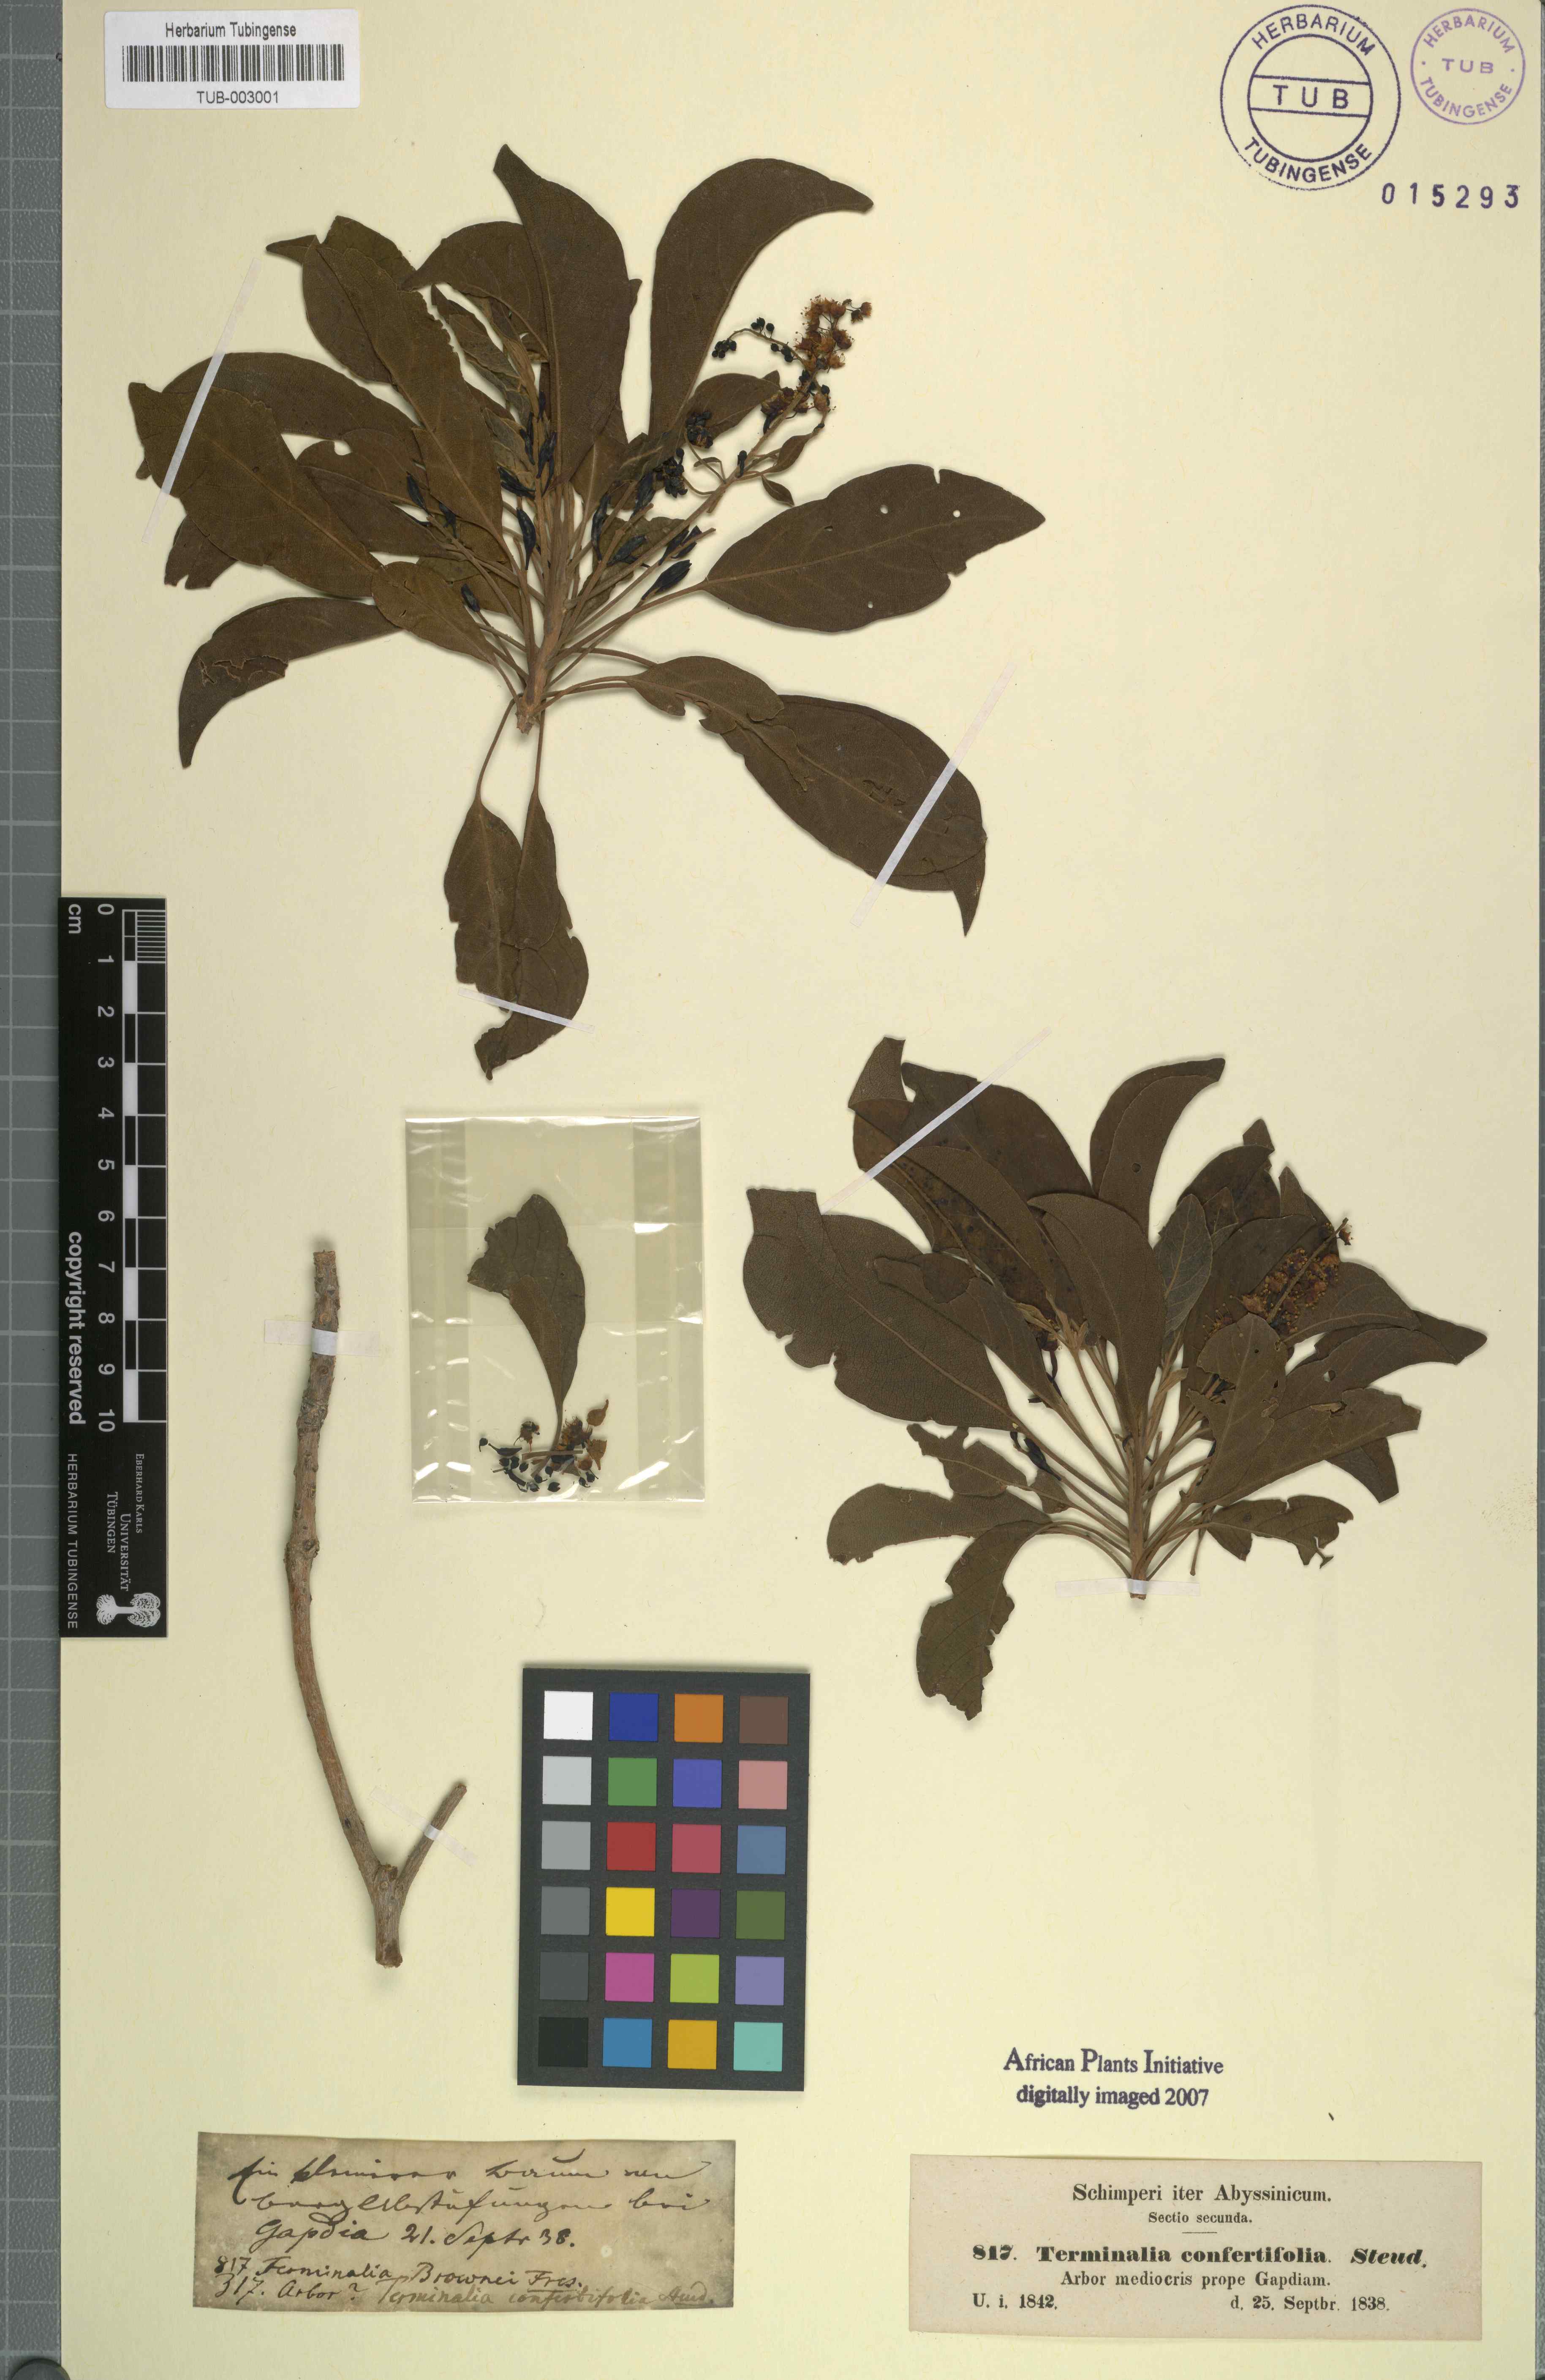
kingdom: Plantae
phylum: Tracheophyta
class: Magnoliopsida
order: Myrtales
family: Combretaceae
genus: Terminalia
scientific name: Terminalia brownii
